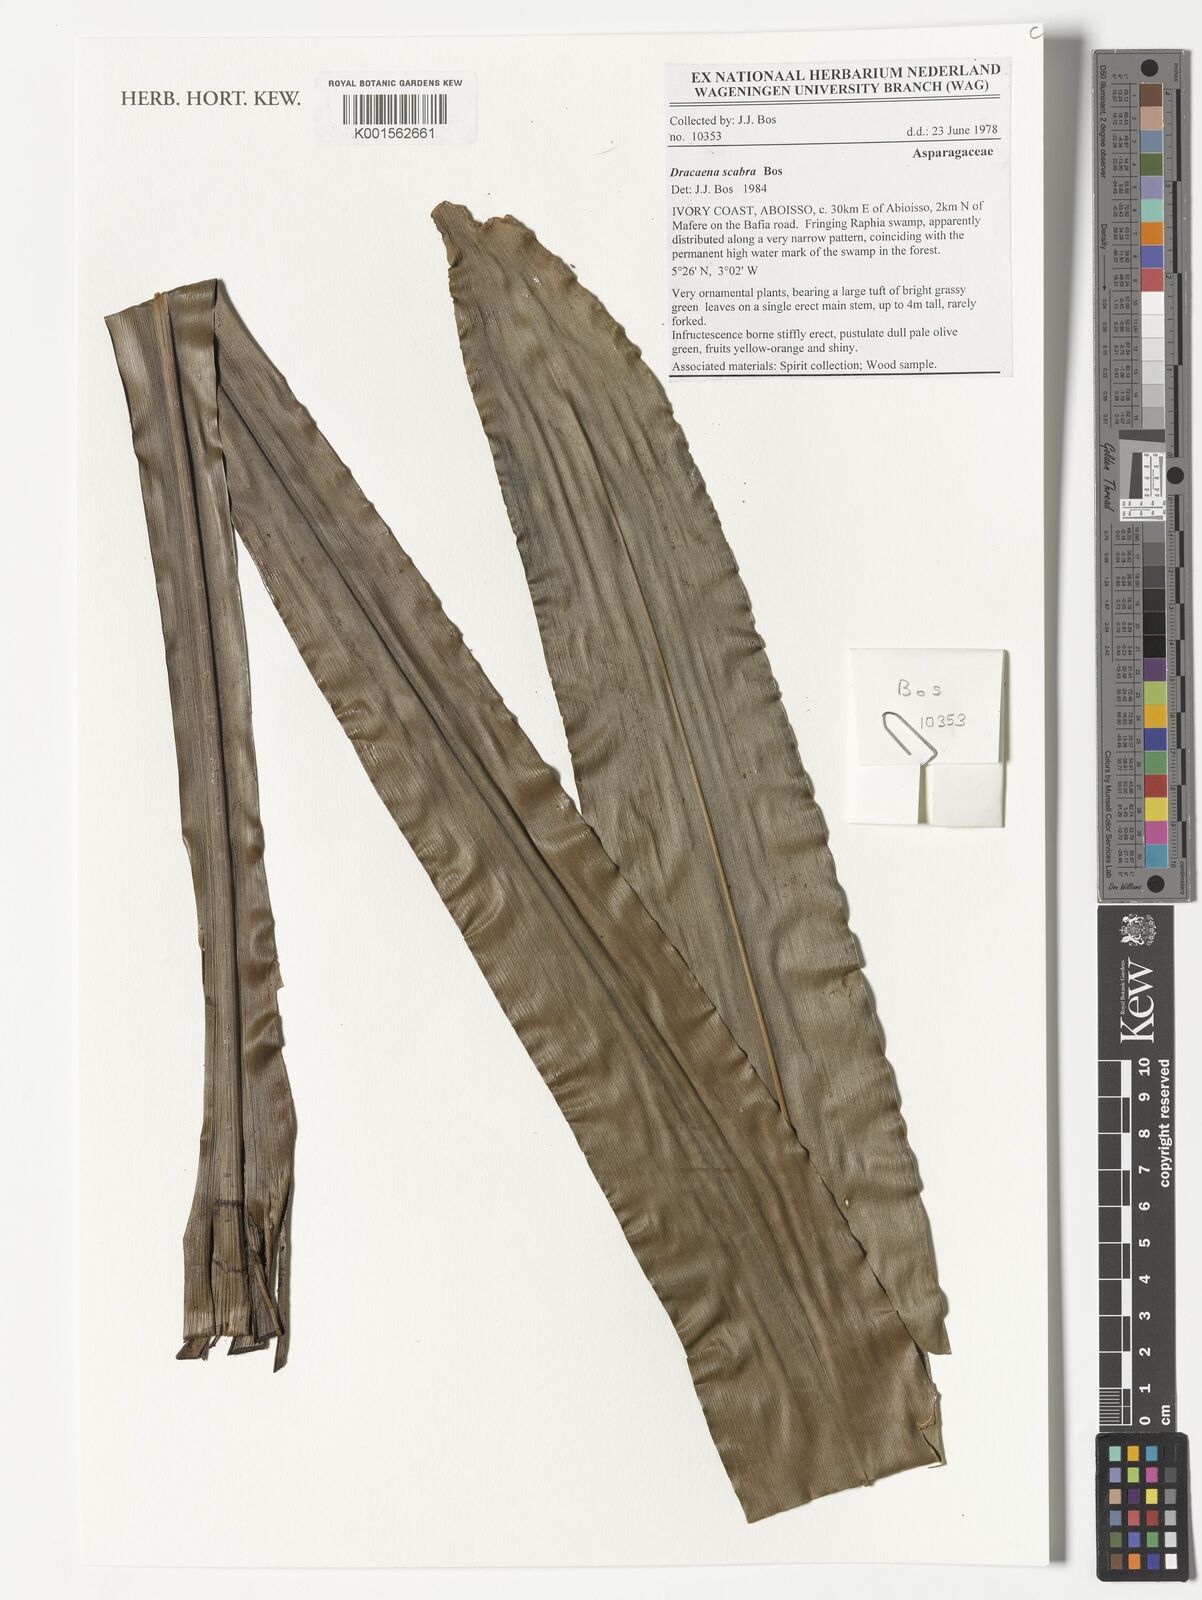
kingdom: Plantae
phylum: Tracheophyta
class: Liliopsida
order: Asparagales
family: Asparagaceae
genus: Dracaena
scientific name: Dracaena scabra
